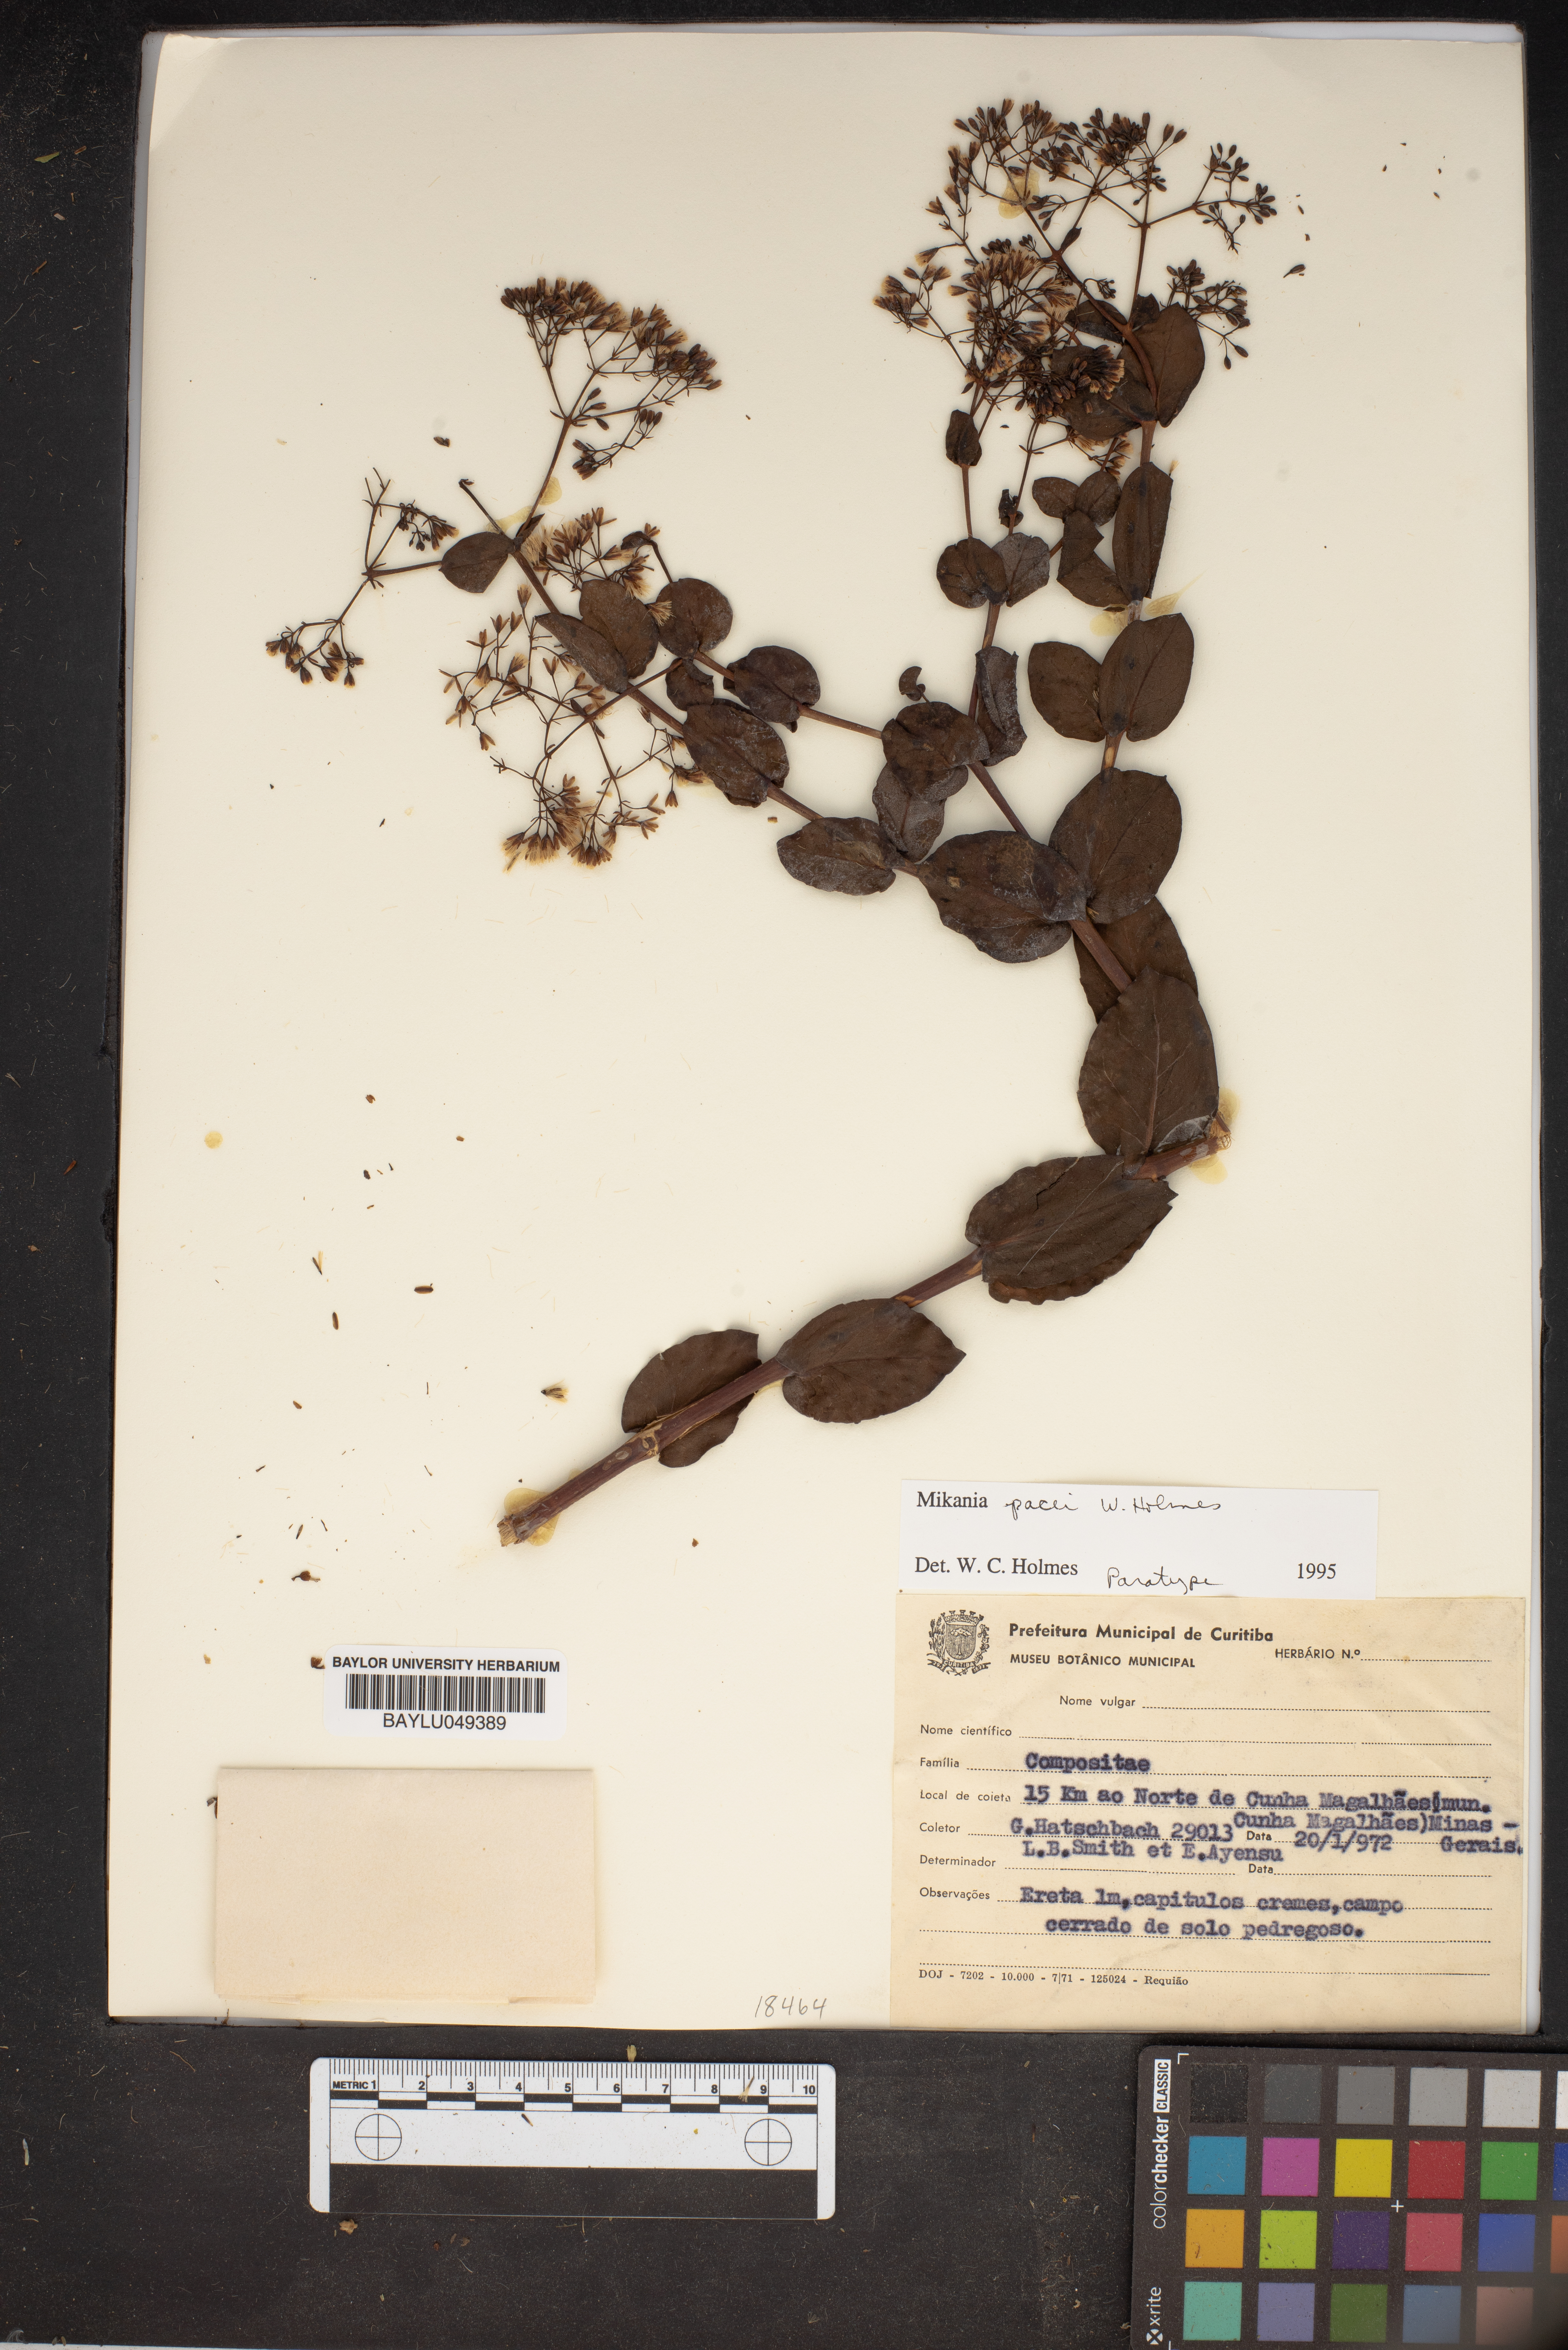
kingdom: Plantae
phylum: Tracheophyta
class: Magnoliopsida
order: Asterales
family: Asteraceae
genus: Mikania
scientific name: Mikania pacei
